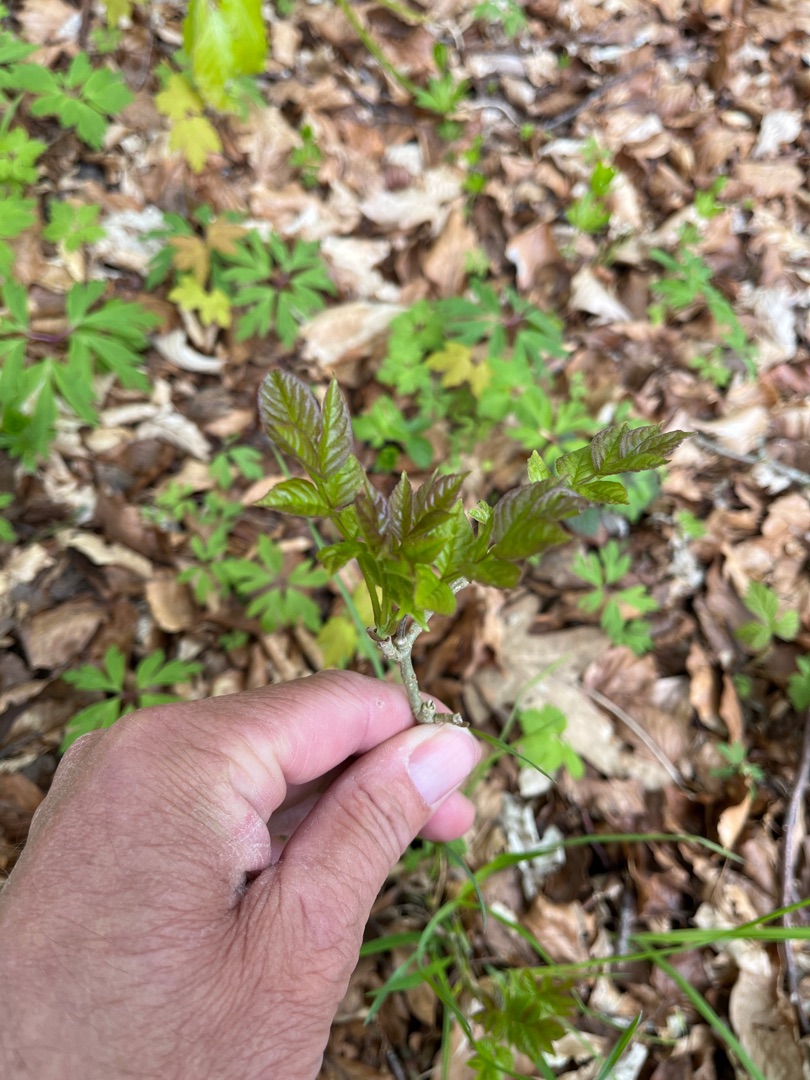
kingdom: Plantae
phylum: Tracheophyta
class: Magnoliopsida
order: Lamiales
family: Oleaceae
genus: Fraxinus
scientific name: Fraxinus excelsior
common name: Ask
